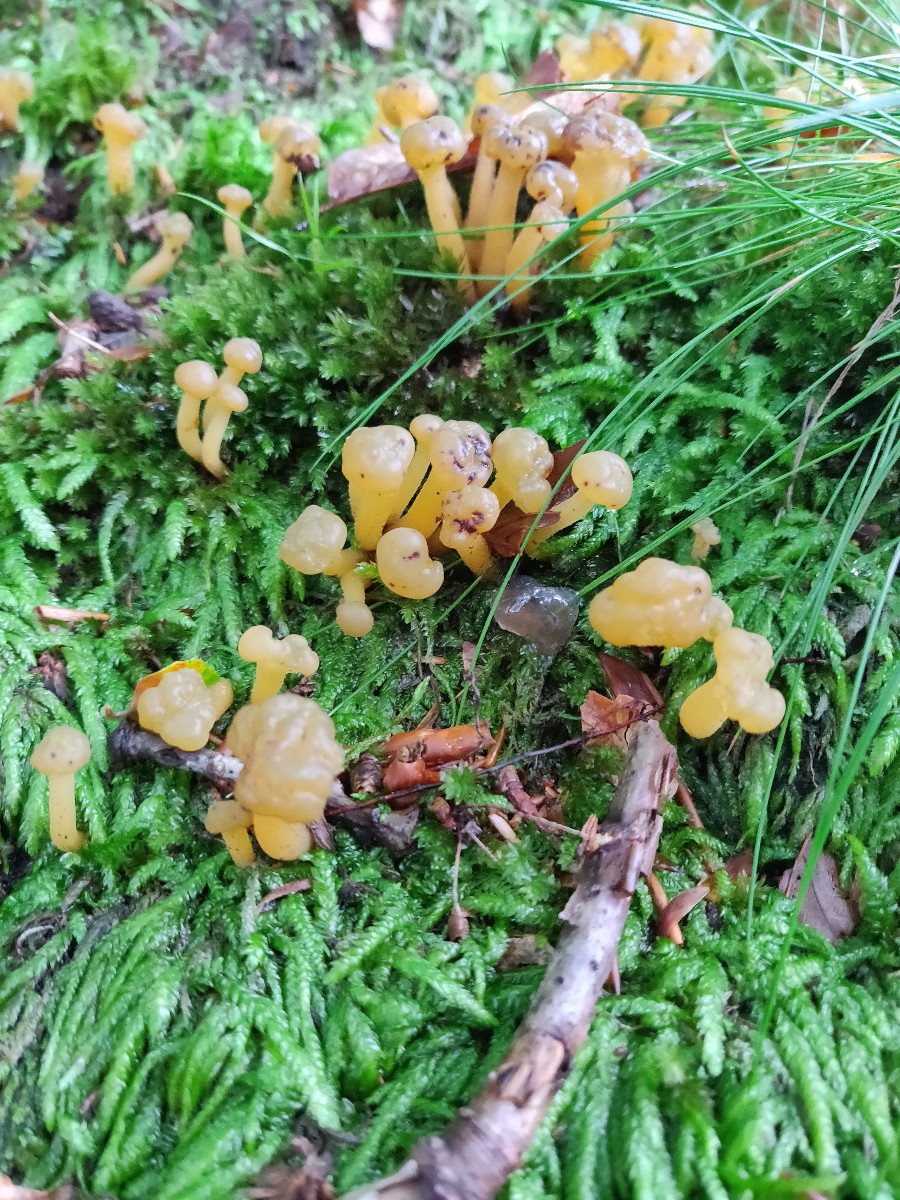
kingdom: Fungi
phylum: Ascomycota
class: Leotiomycetes
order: Leotiales
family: Leotiaceae
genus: Leotia
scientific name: Leotia lubrica
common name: ravsvamp
